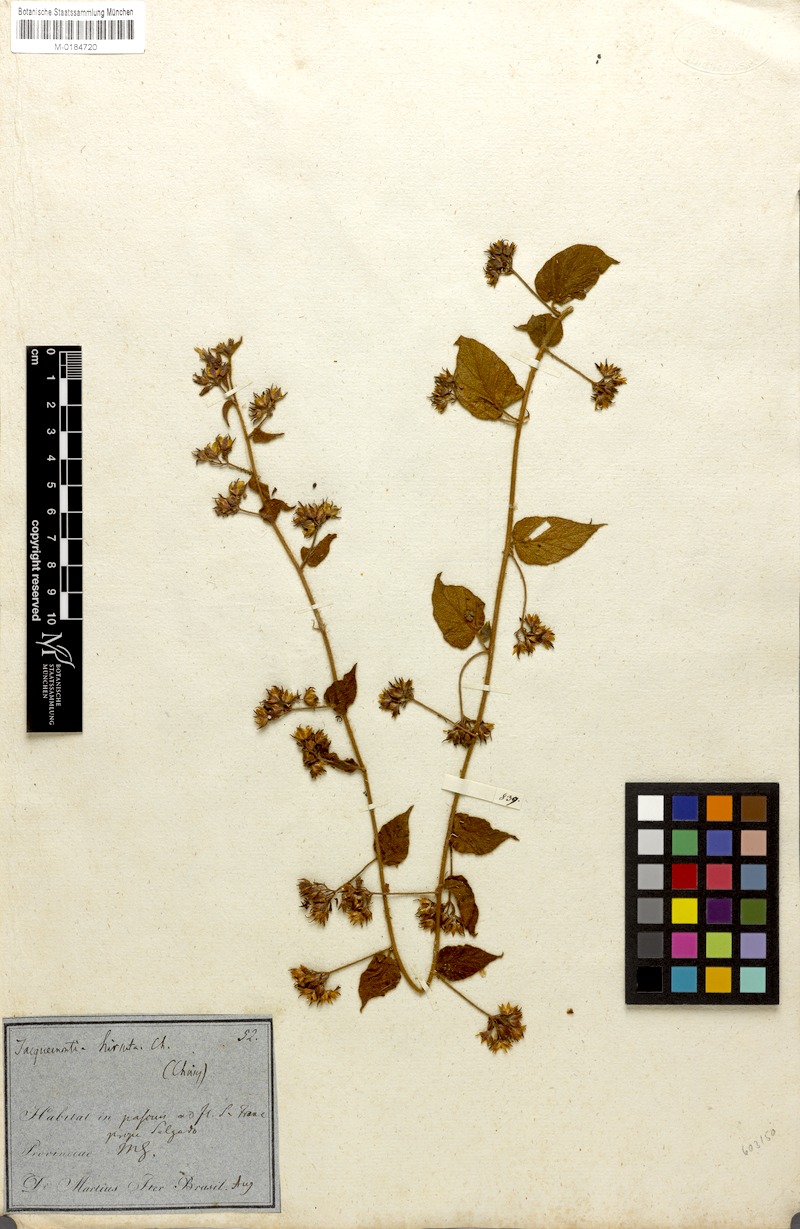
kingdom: Plantae
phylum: Tracheophyta
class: Magnoliopsida
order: Solanales
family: Convolvulaceae
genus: Jacquemontia
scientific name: Jacquemontia sphaerostigma
